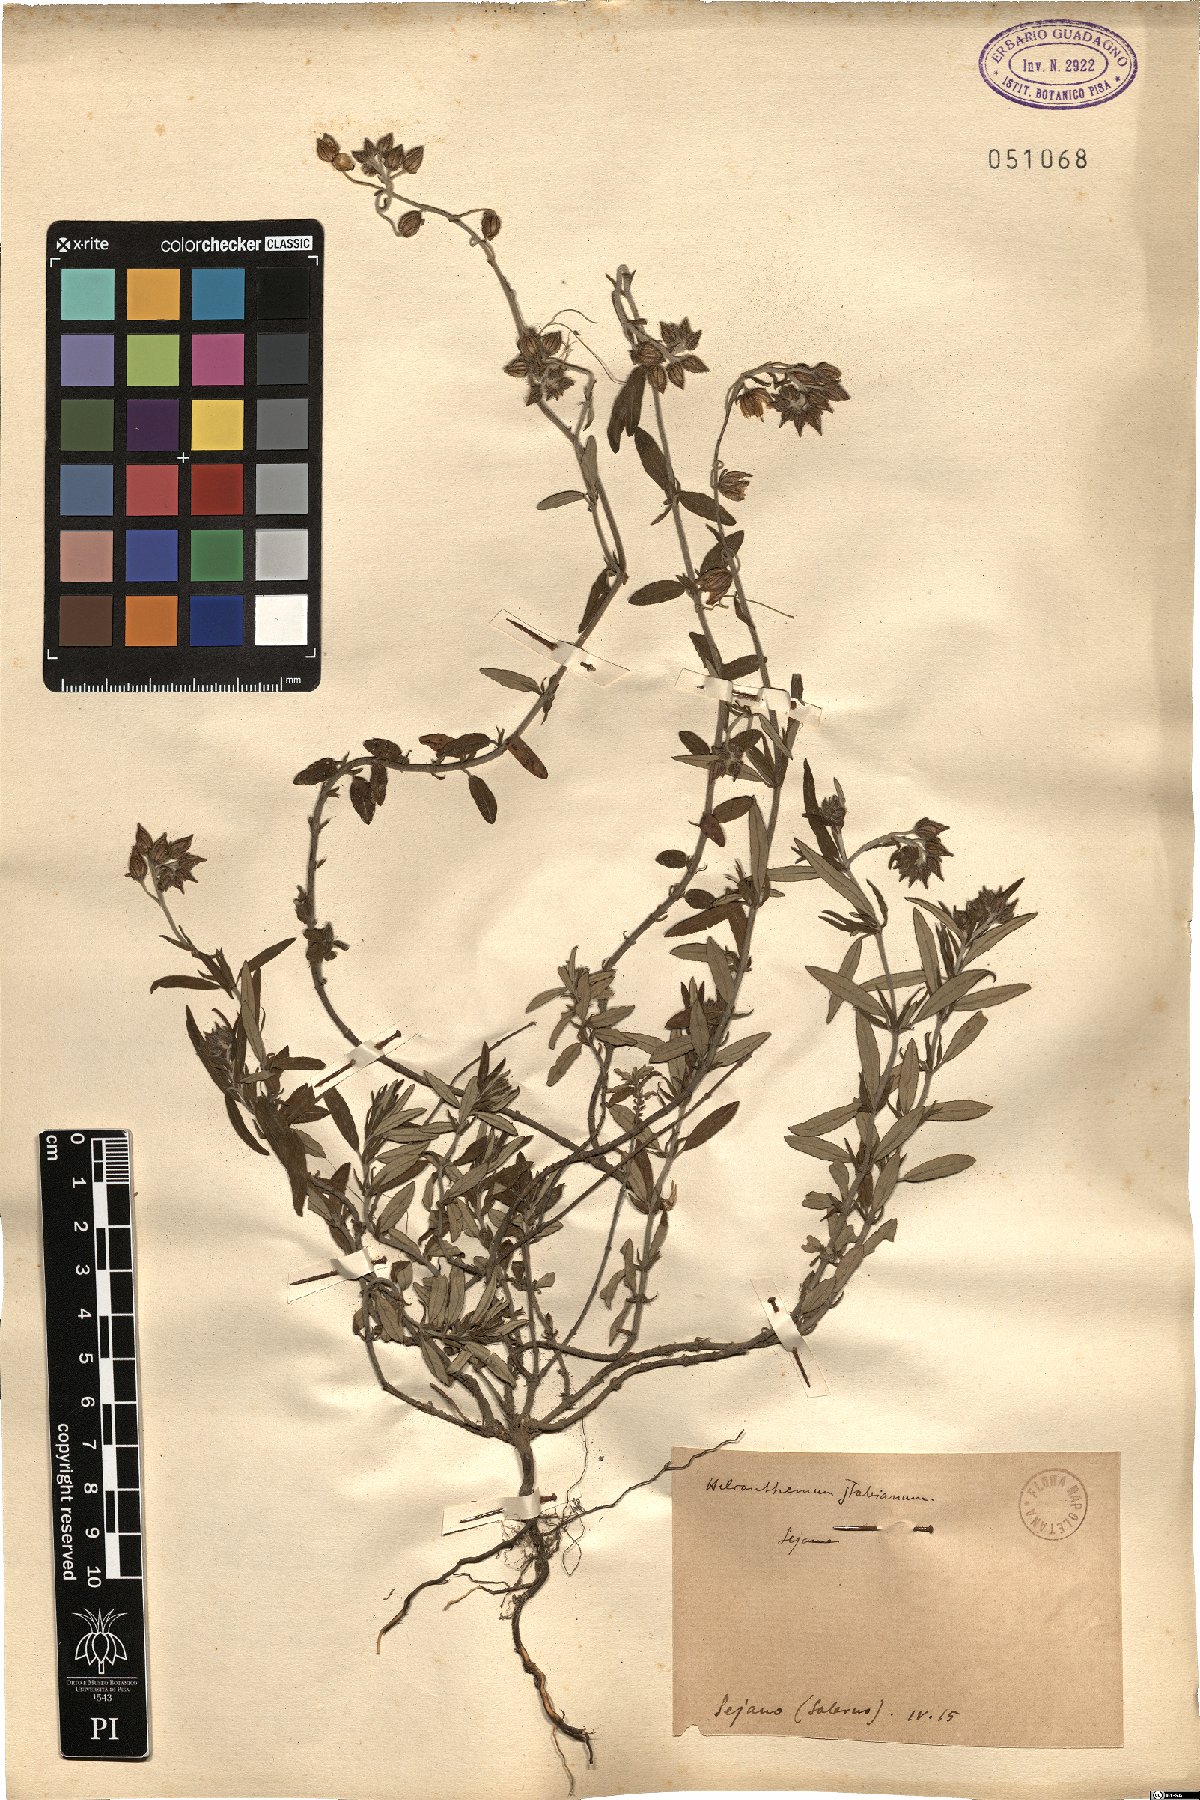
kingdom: Plantae
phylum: Tracheophyta
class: Magnoliopsida
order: Malvales
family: Cistaceae
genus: Helianthemum
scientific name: Helianthemum croceum
